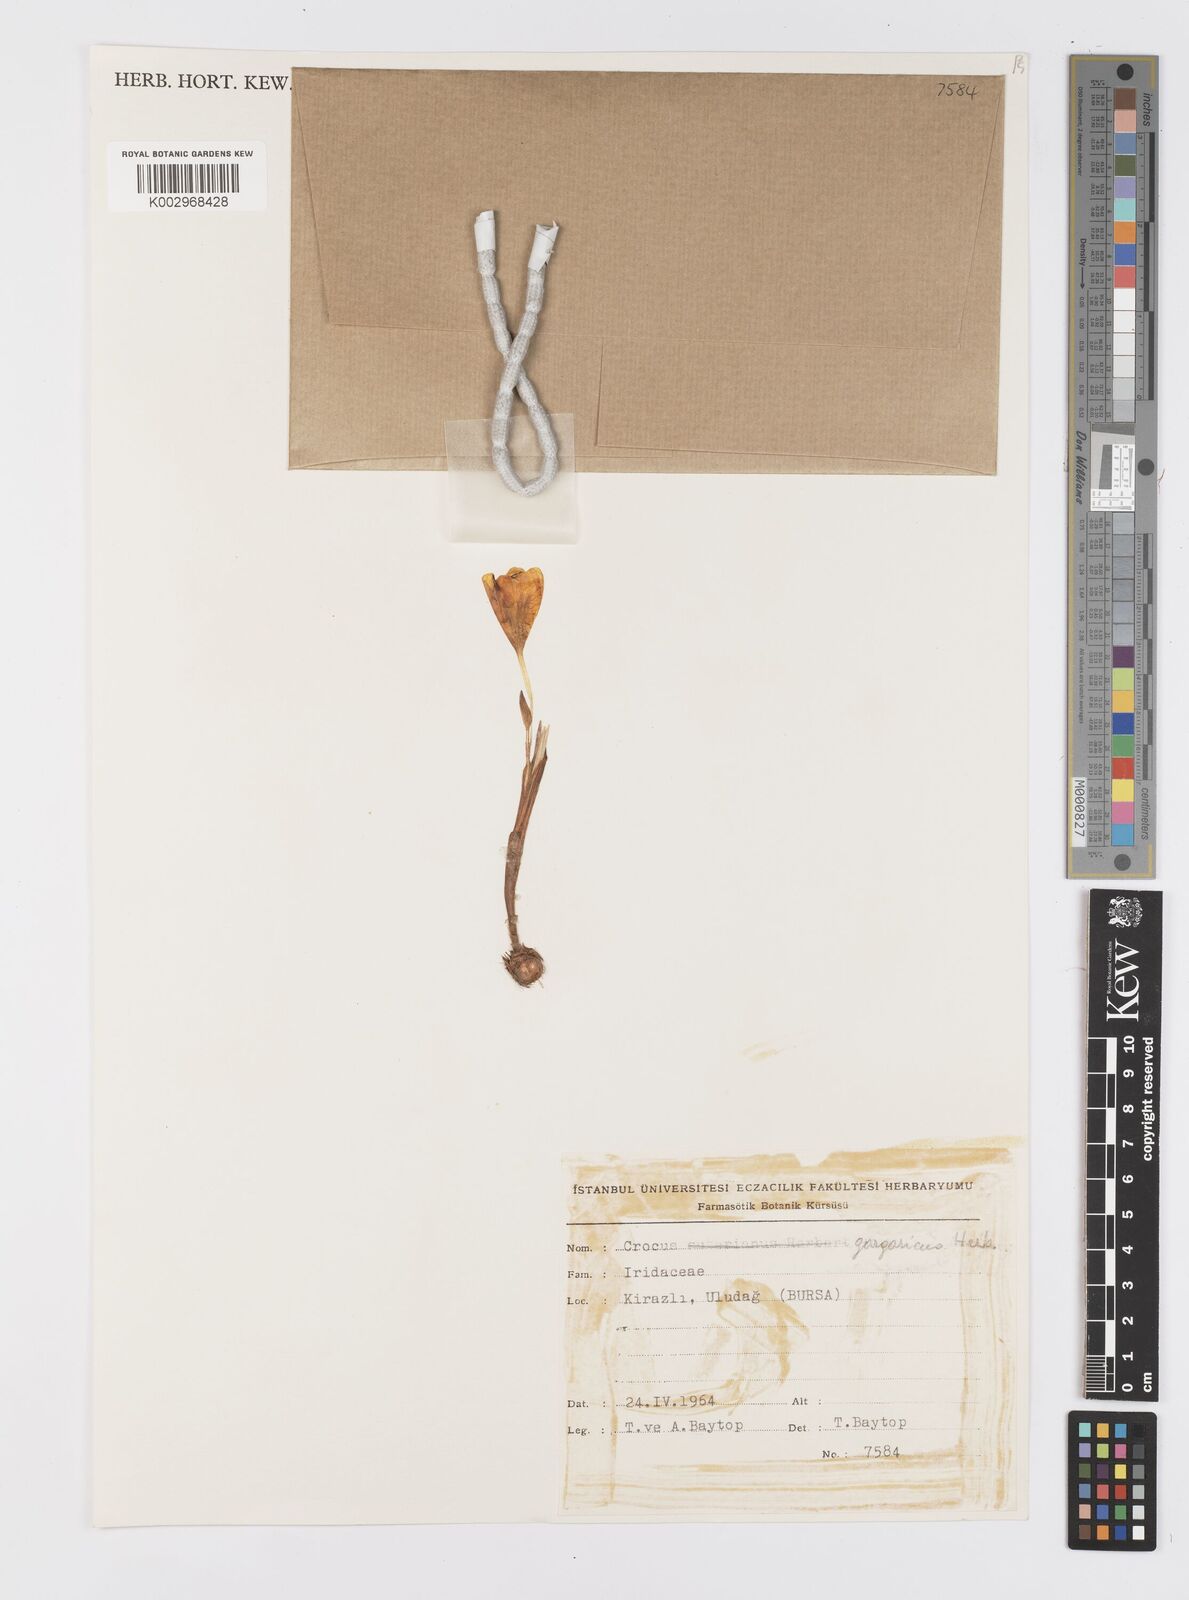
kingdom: Plantae
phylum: Tracheophyta
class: Liliopsida
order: Asparagales
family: Iridaceae
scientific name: Iridaceae
